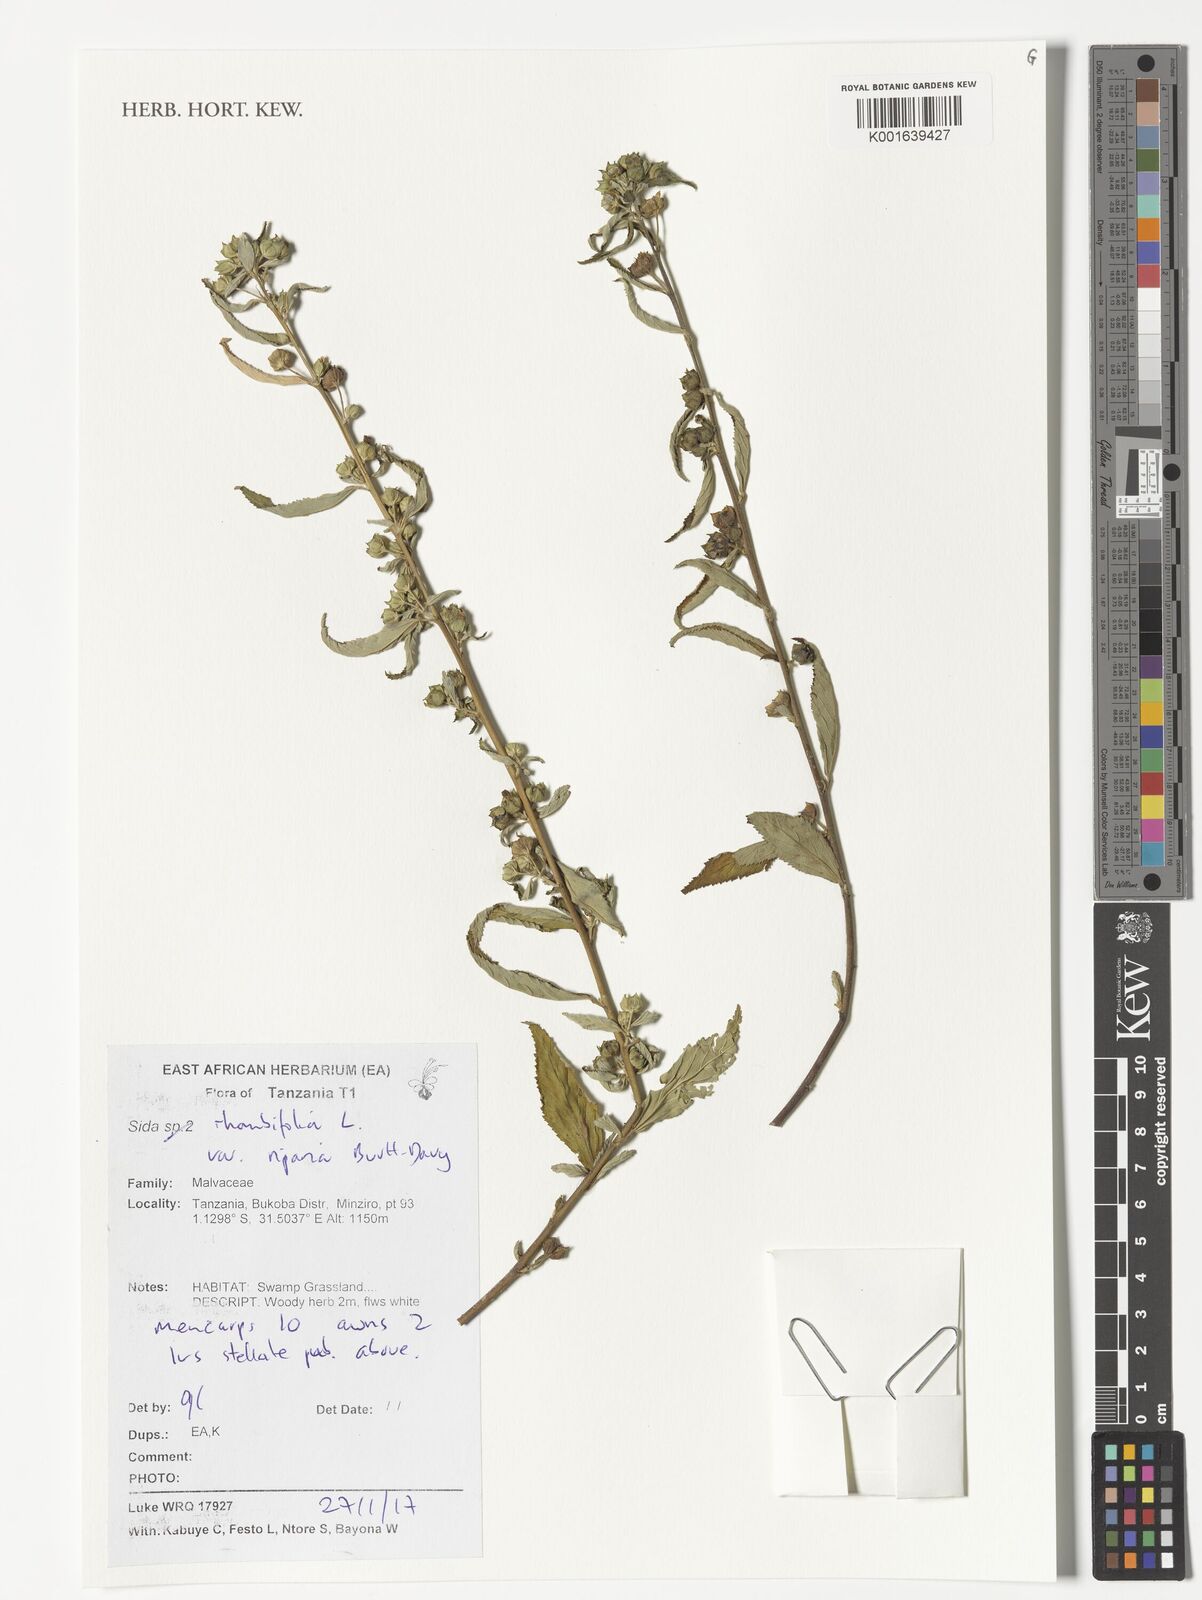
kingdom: Plantae
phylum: Tracheophyta
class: Magnoliopsida
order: Malvales
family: Malvaceae
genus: Sida
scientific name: Sida rhombifolia
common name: Queensland-hemp
